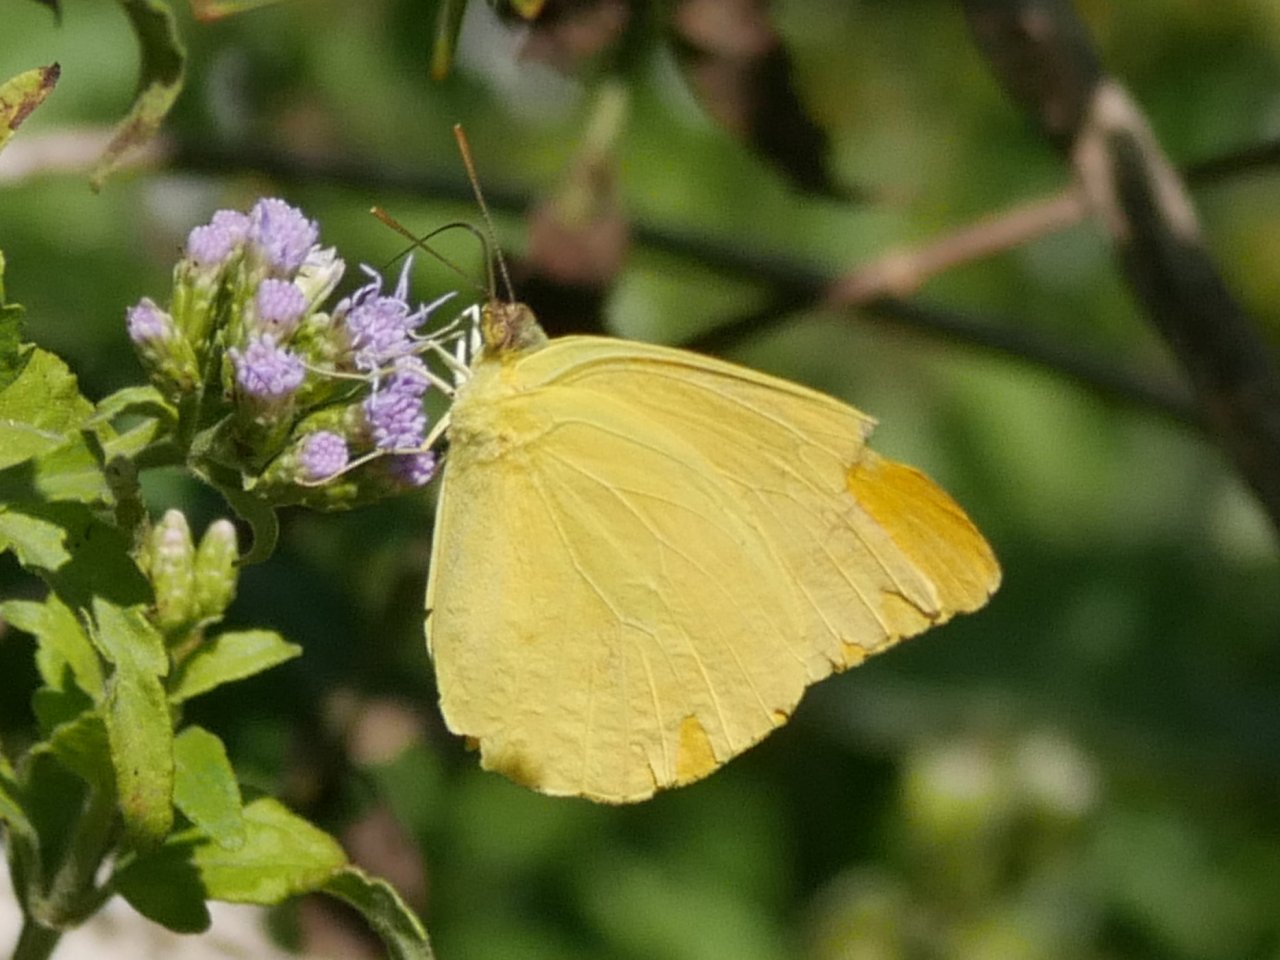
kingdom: Animalia
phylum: Arthropoda
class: Insecta
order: Lepidoptera
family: Pieridae
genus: Phoebis
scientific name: Phoebis agarithe
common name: Large Orange Sulphur
